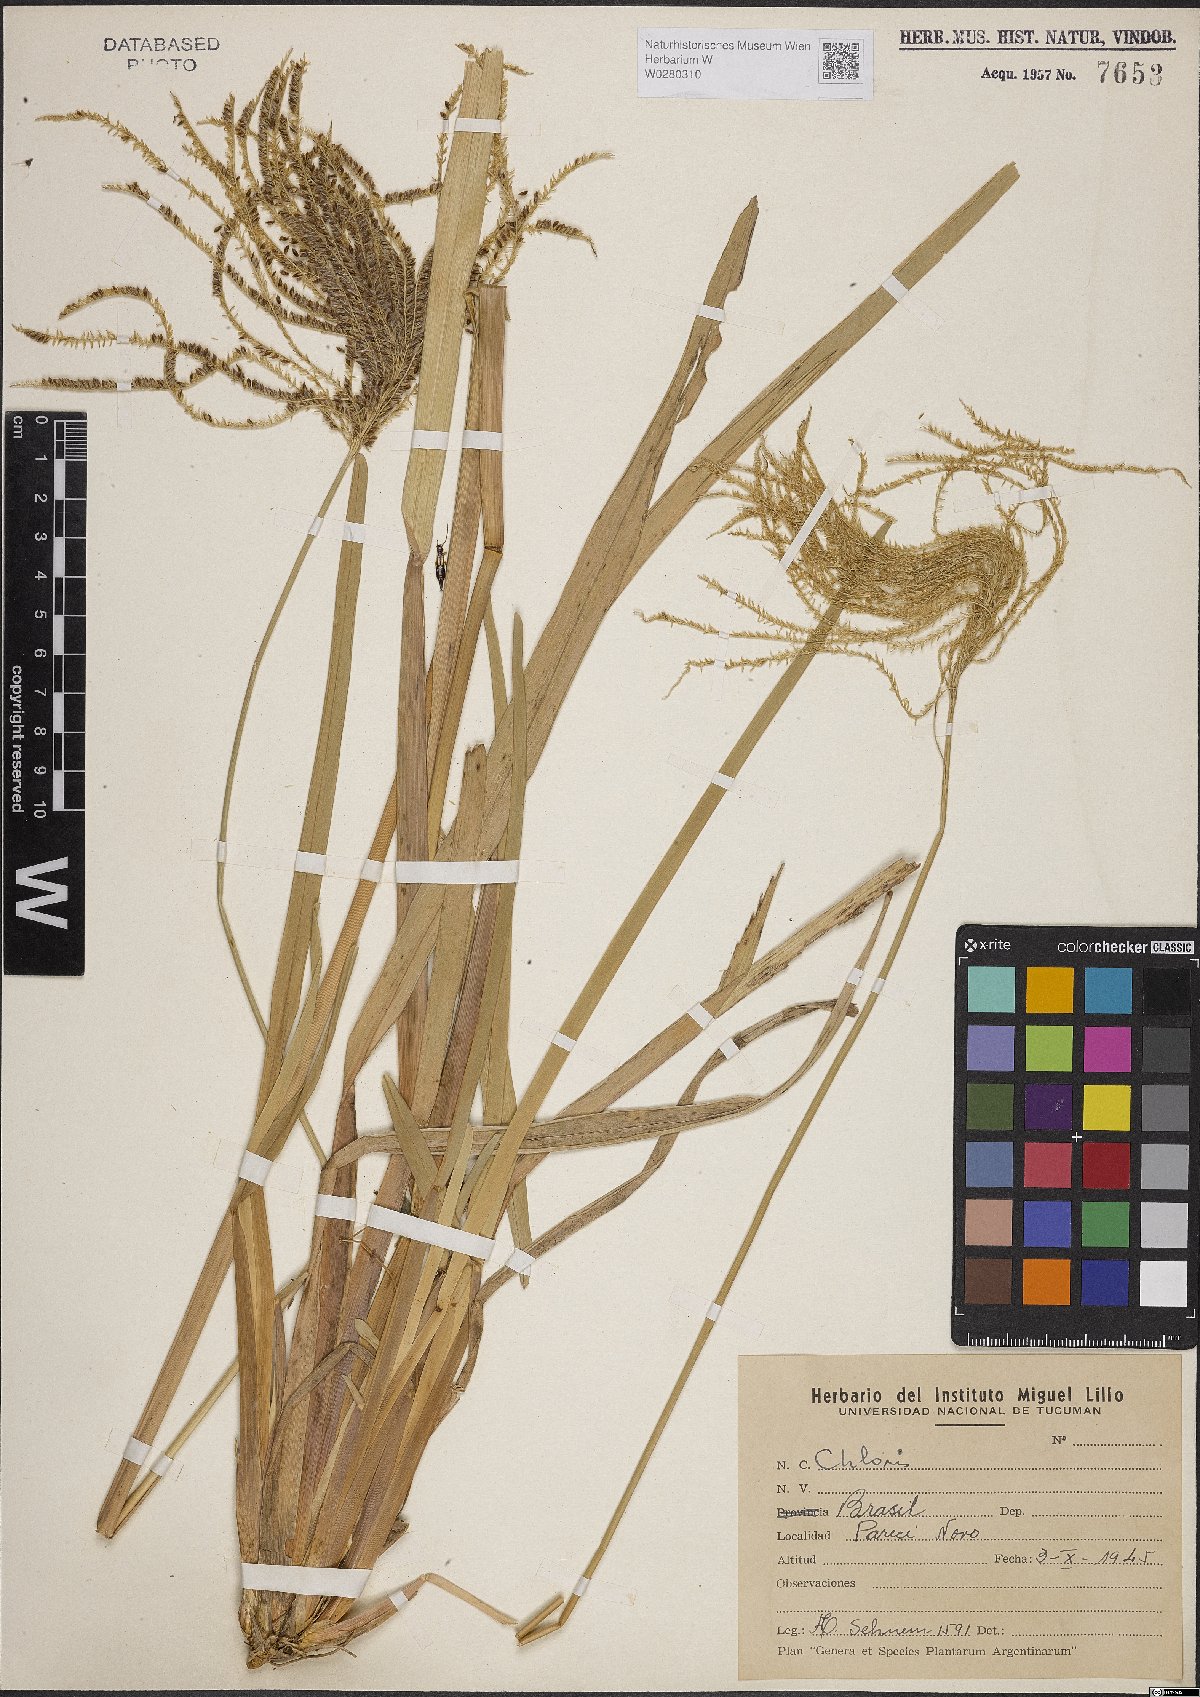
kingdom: Plantae
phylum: Tracheophyta
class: Liliopsida
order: Poales
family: Poaceae
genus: Chloris
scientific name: Chloris
